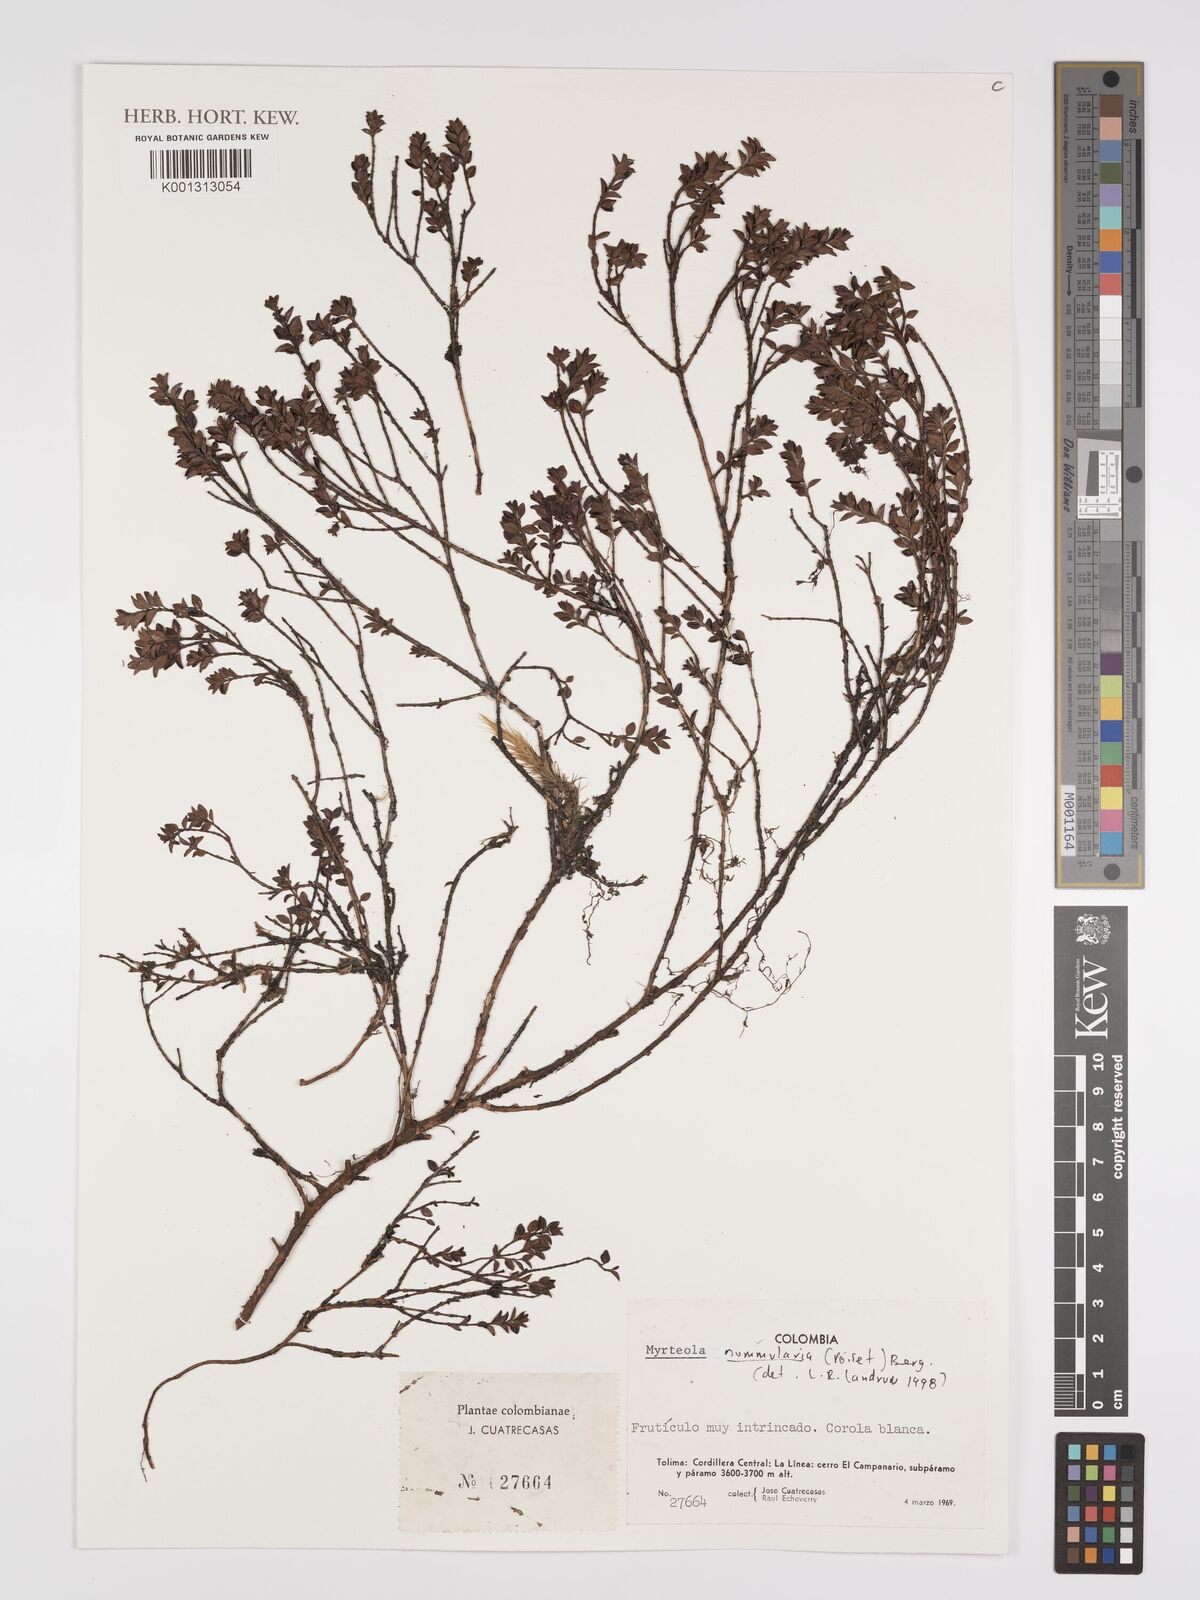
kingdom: Plantae
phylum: Tracheophyta
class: Magnoliopsida
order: Myrtales
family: Myrtaceae
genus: Myrteola
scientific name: Myrteola nummularia
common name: Cranberry-myrtle
